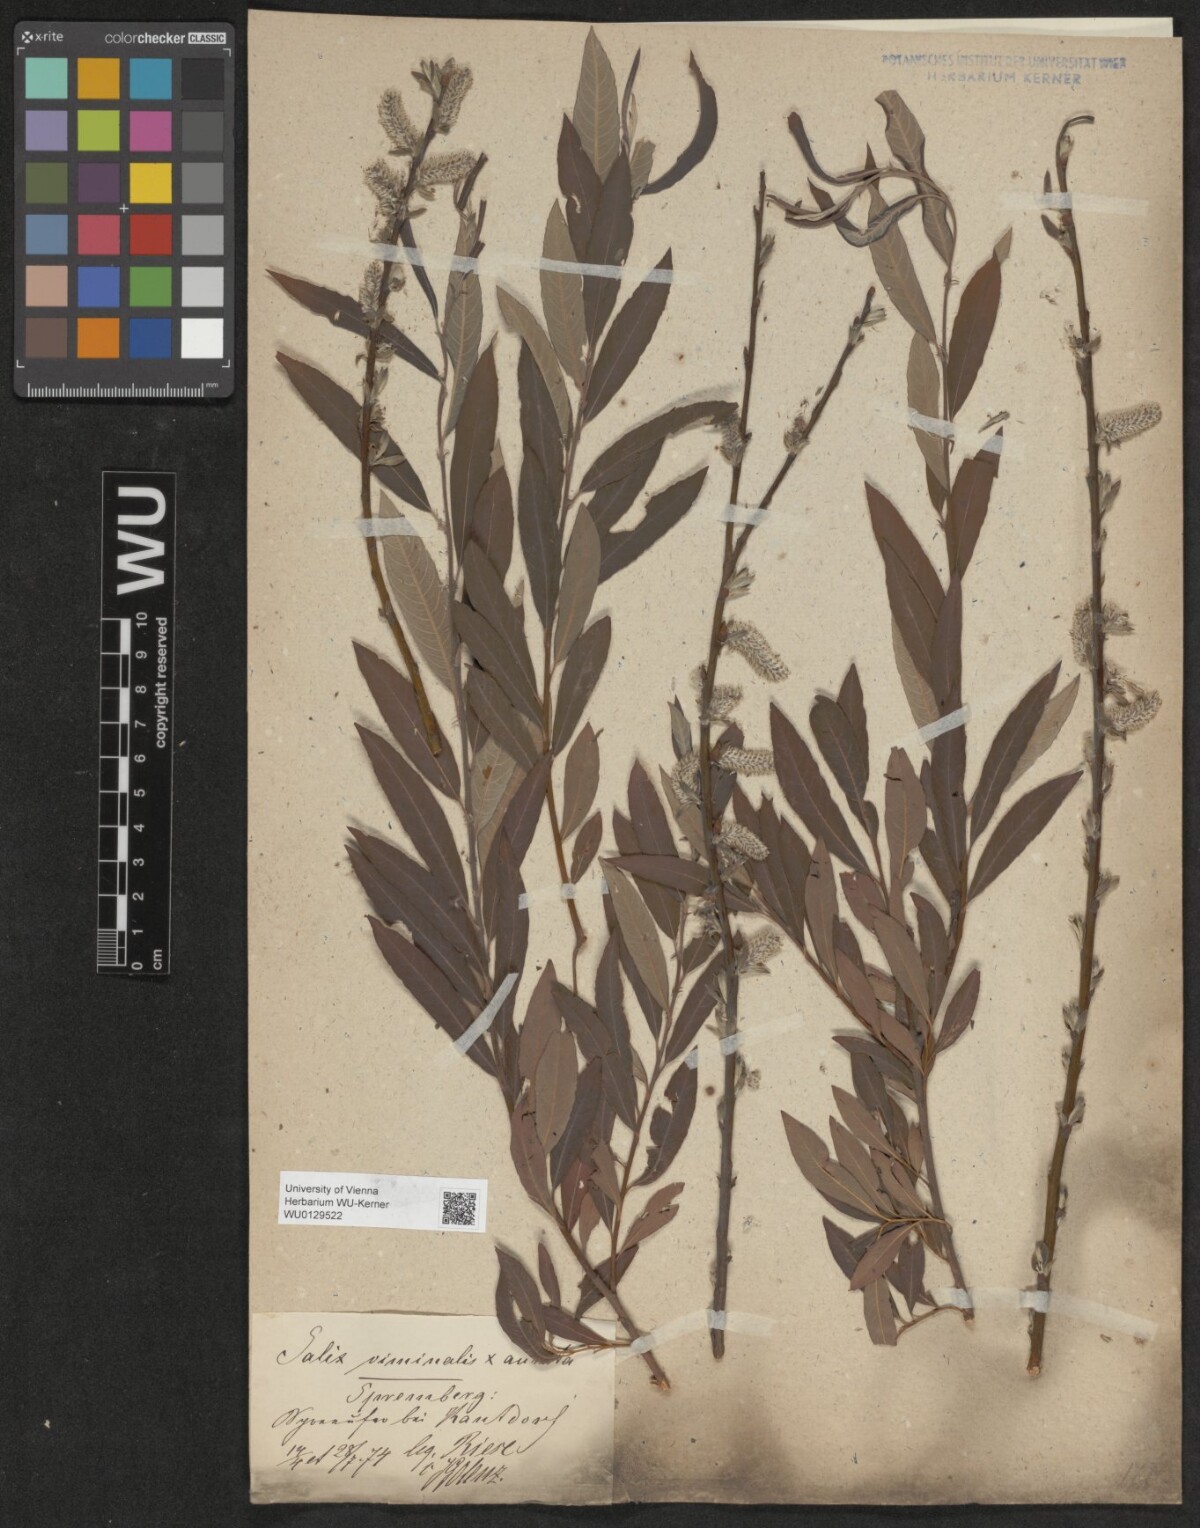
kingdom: Plantae
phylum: Tracheophyta
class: Magnoliopsida
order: Malpighiales
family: Salicaceae
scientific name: Salicaceae
